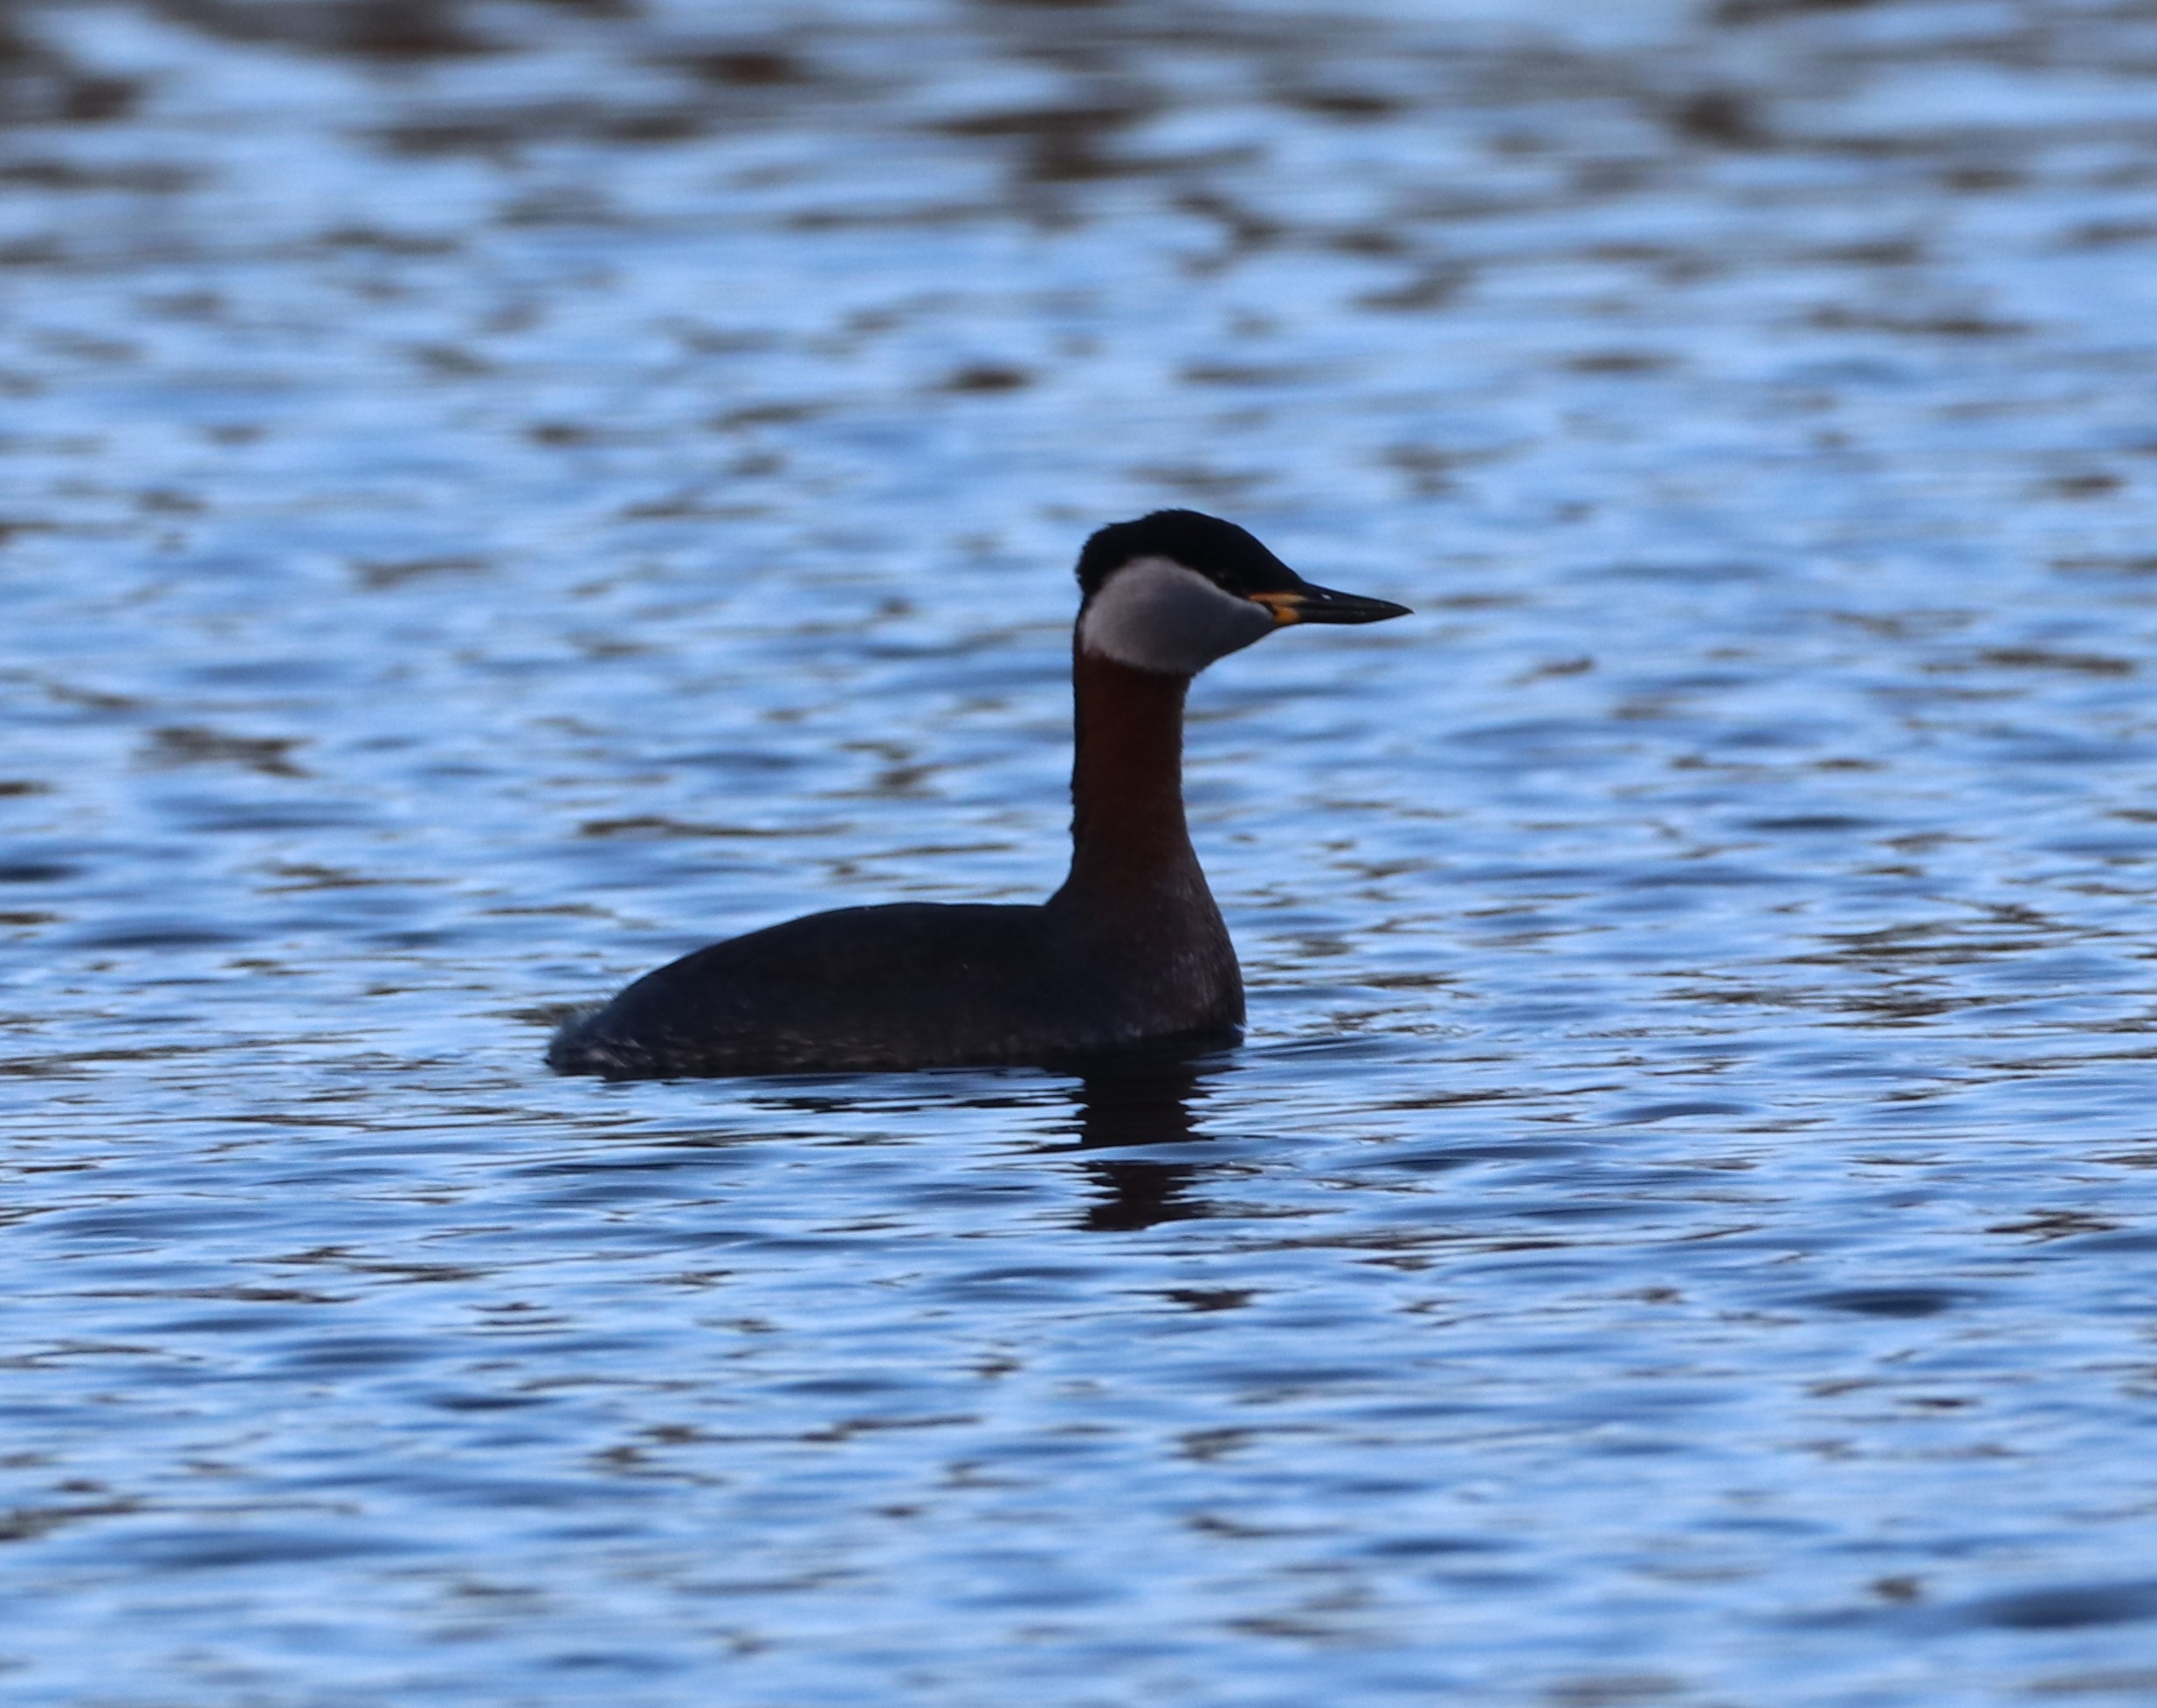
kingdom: Animalia
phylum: Chordata
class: Aves
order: Podicipediformes
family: Podicipedidae
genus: Podiceps
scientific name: Podiceps grisegena
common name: Gråstrubet lappedykker
